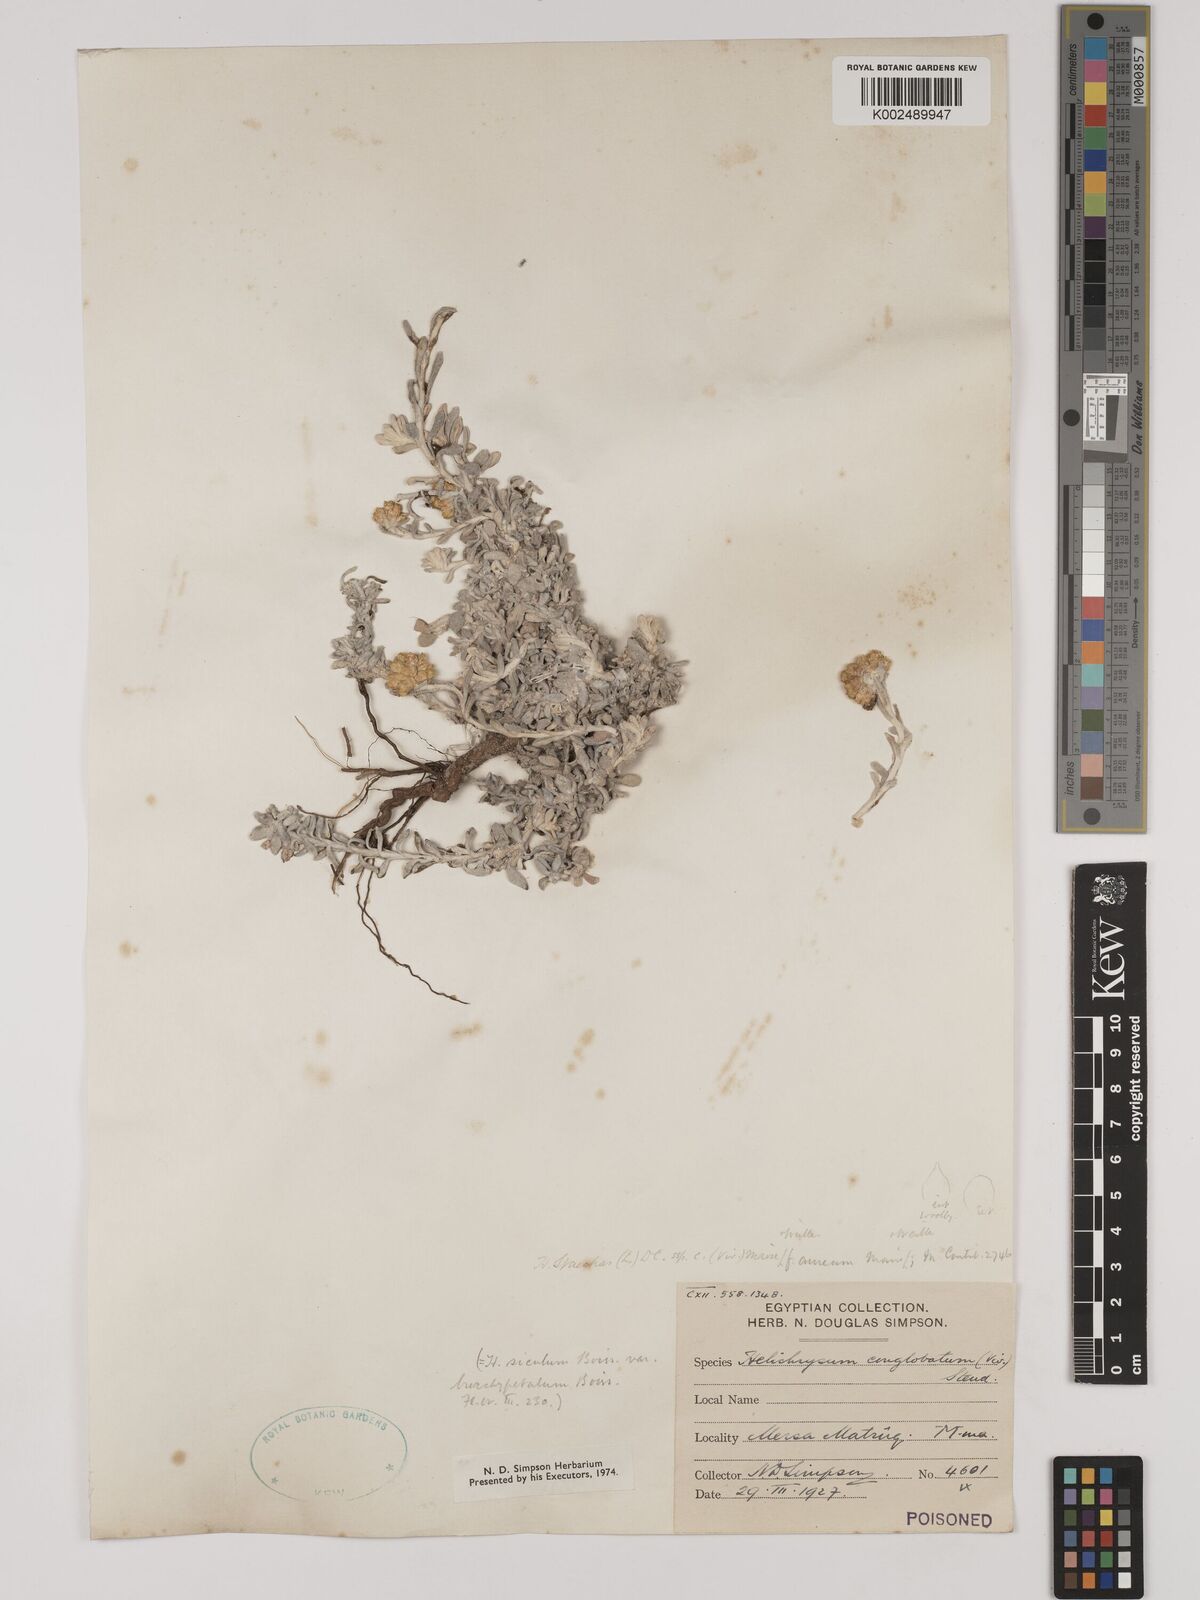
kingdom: Plantae
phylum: Tracheophyta
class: Magnoliopsida
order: Asterales
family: Asteraceae
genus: Helichrysum
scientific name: Helichrysum stoechas
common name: Goldilocks
